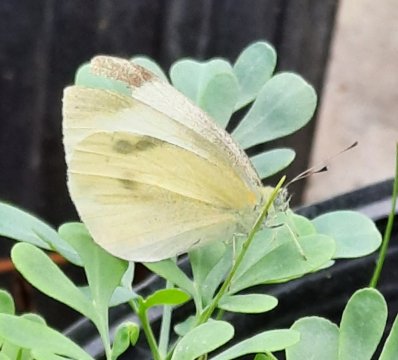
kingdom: Animalia
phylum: Arthropoda
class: Insecta
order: Lepidoptera
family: Pieridae
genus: Pieris
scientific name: Pieris rapae
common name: Cabbage White
